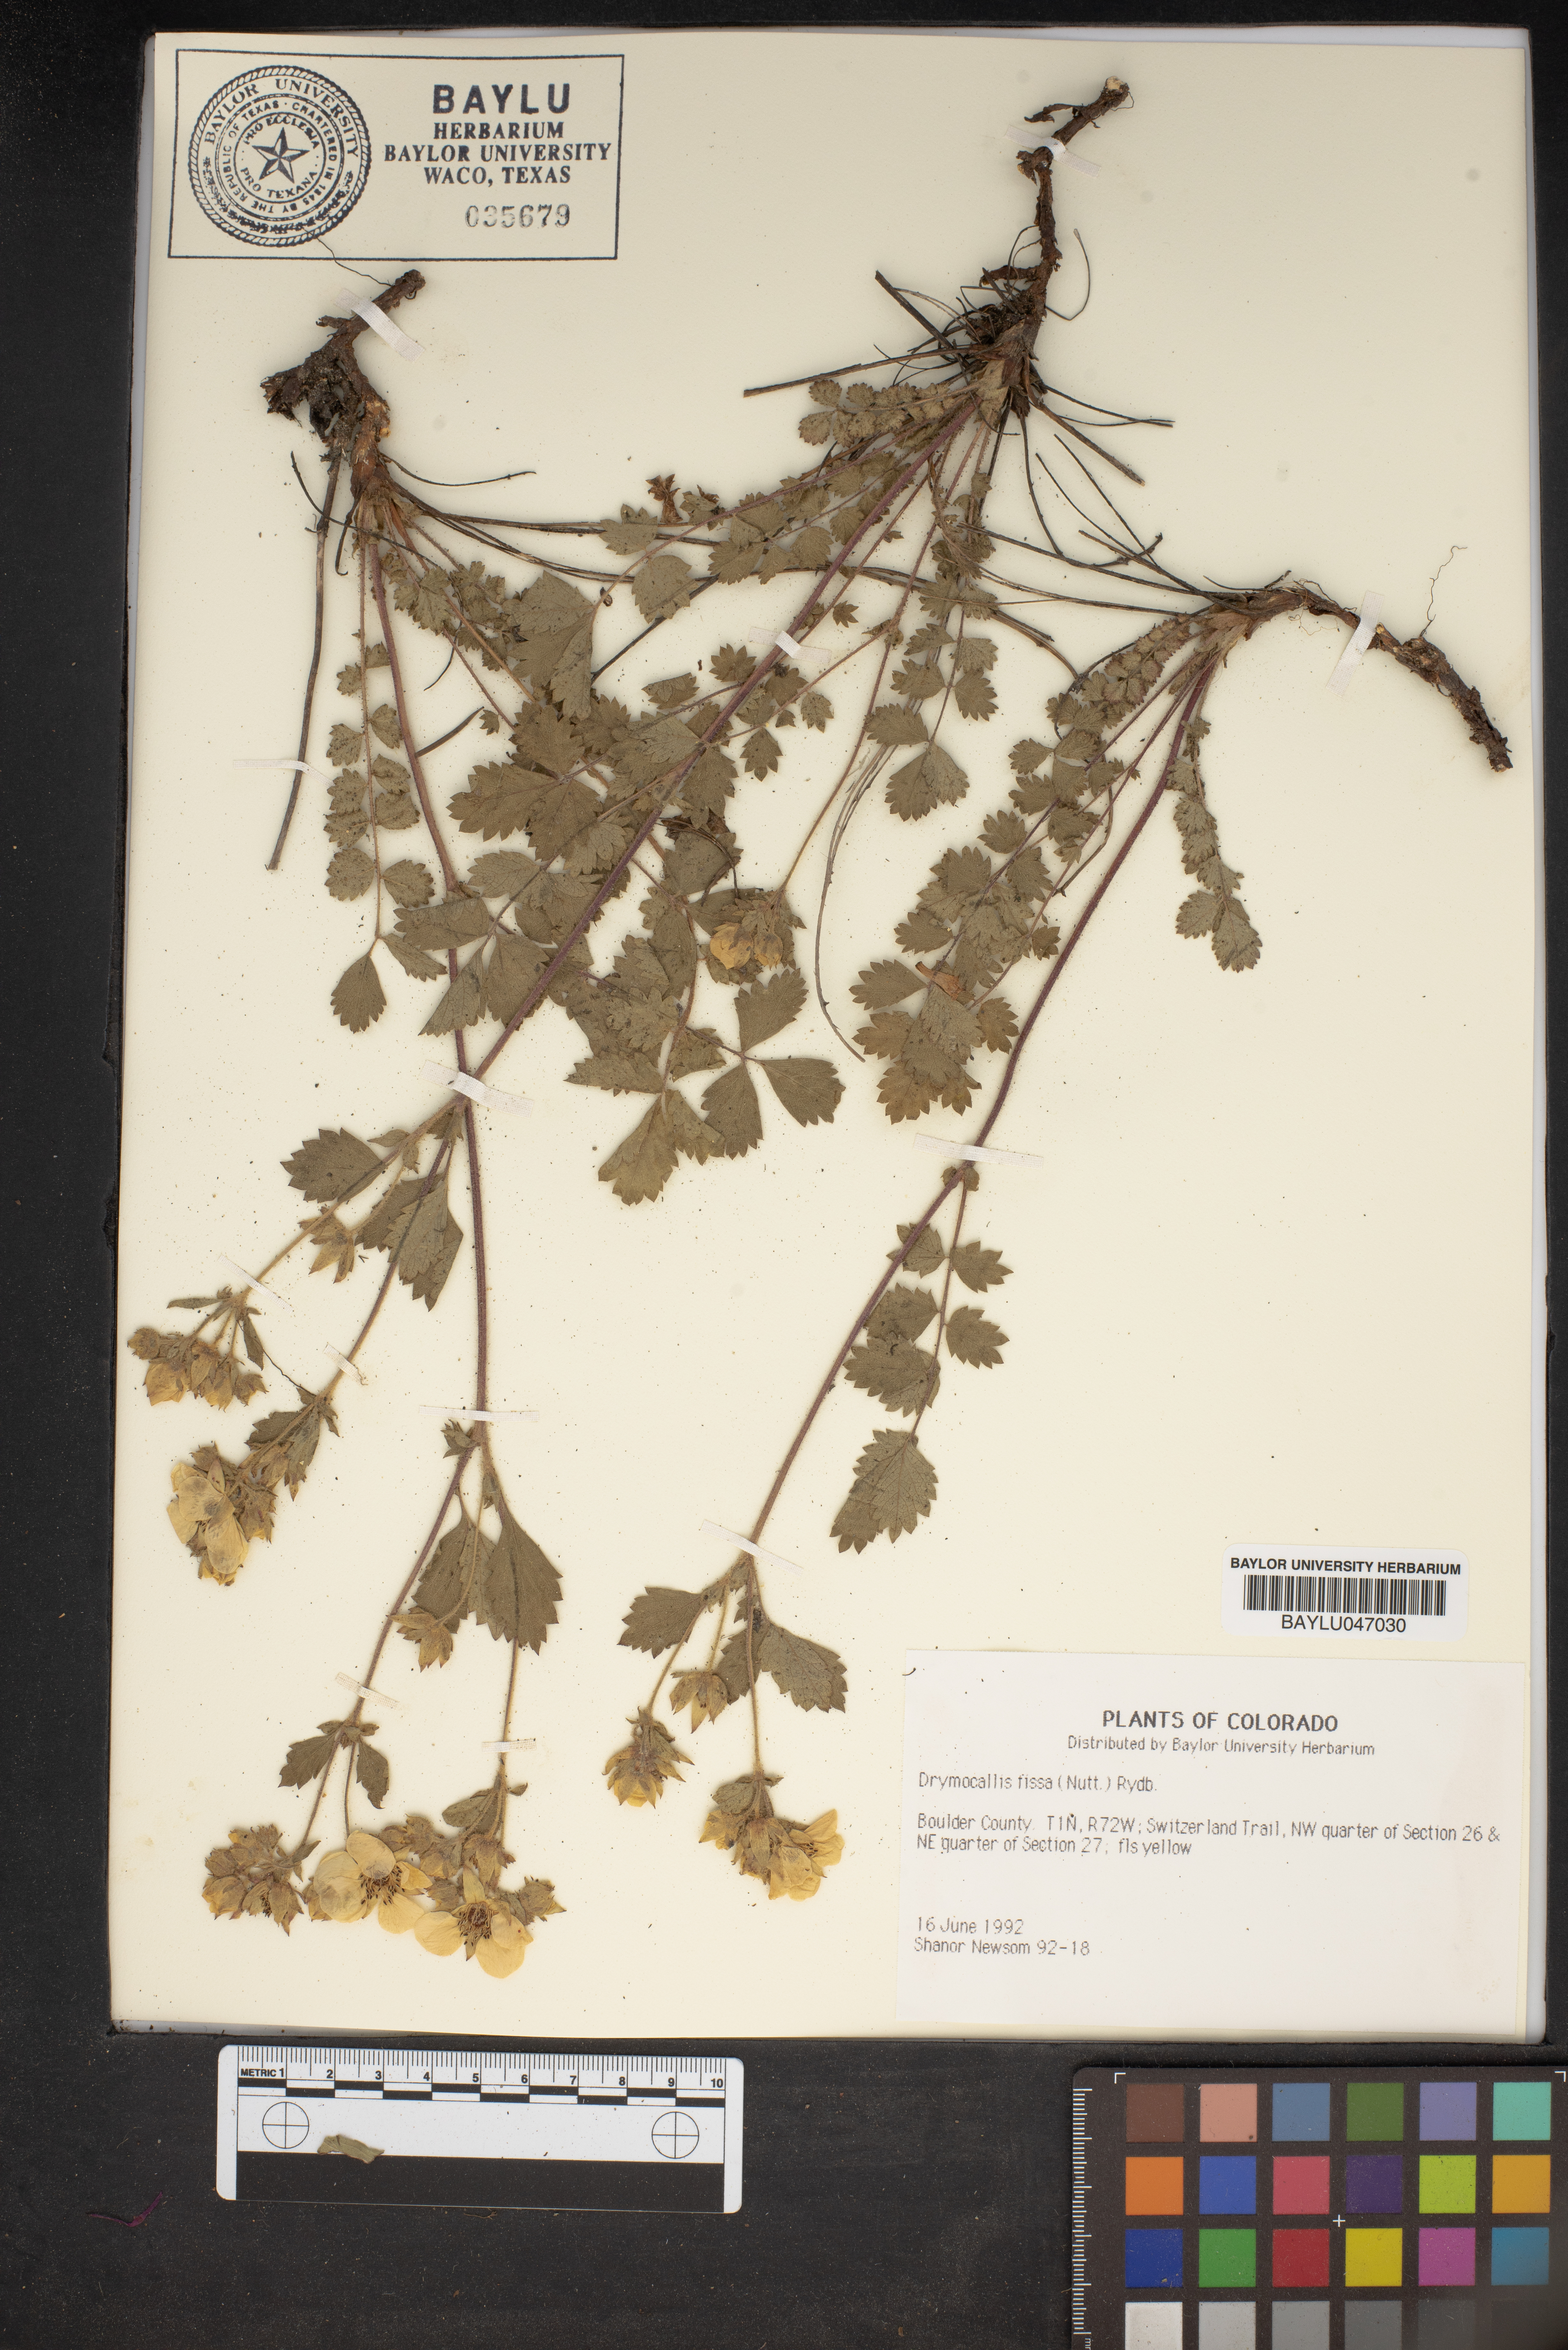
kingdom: Plantae
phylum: Tracheophyta
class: Magnoliopsida
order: Rosales
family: Rosaceae
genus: Drymocallis
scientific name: Drymocallis fissa
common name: Big-flowered cinquefoil
